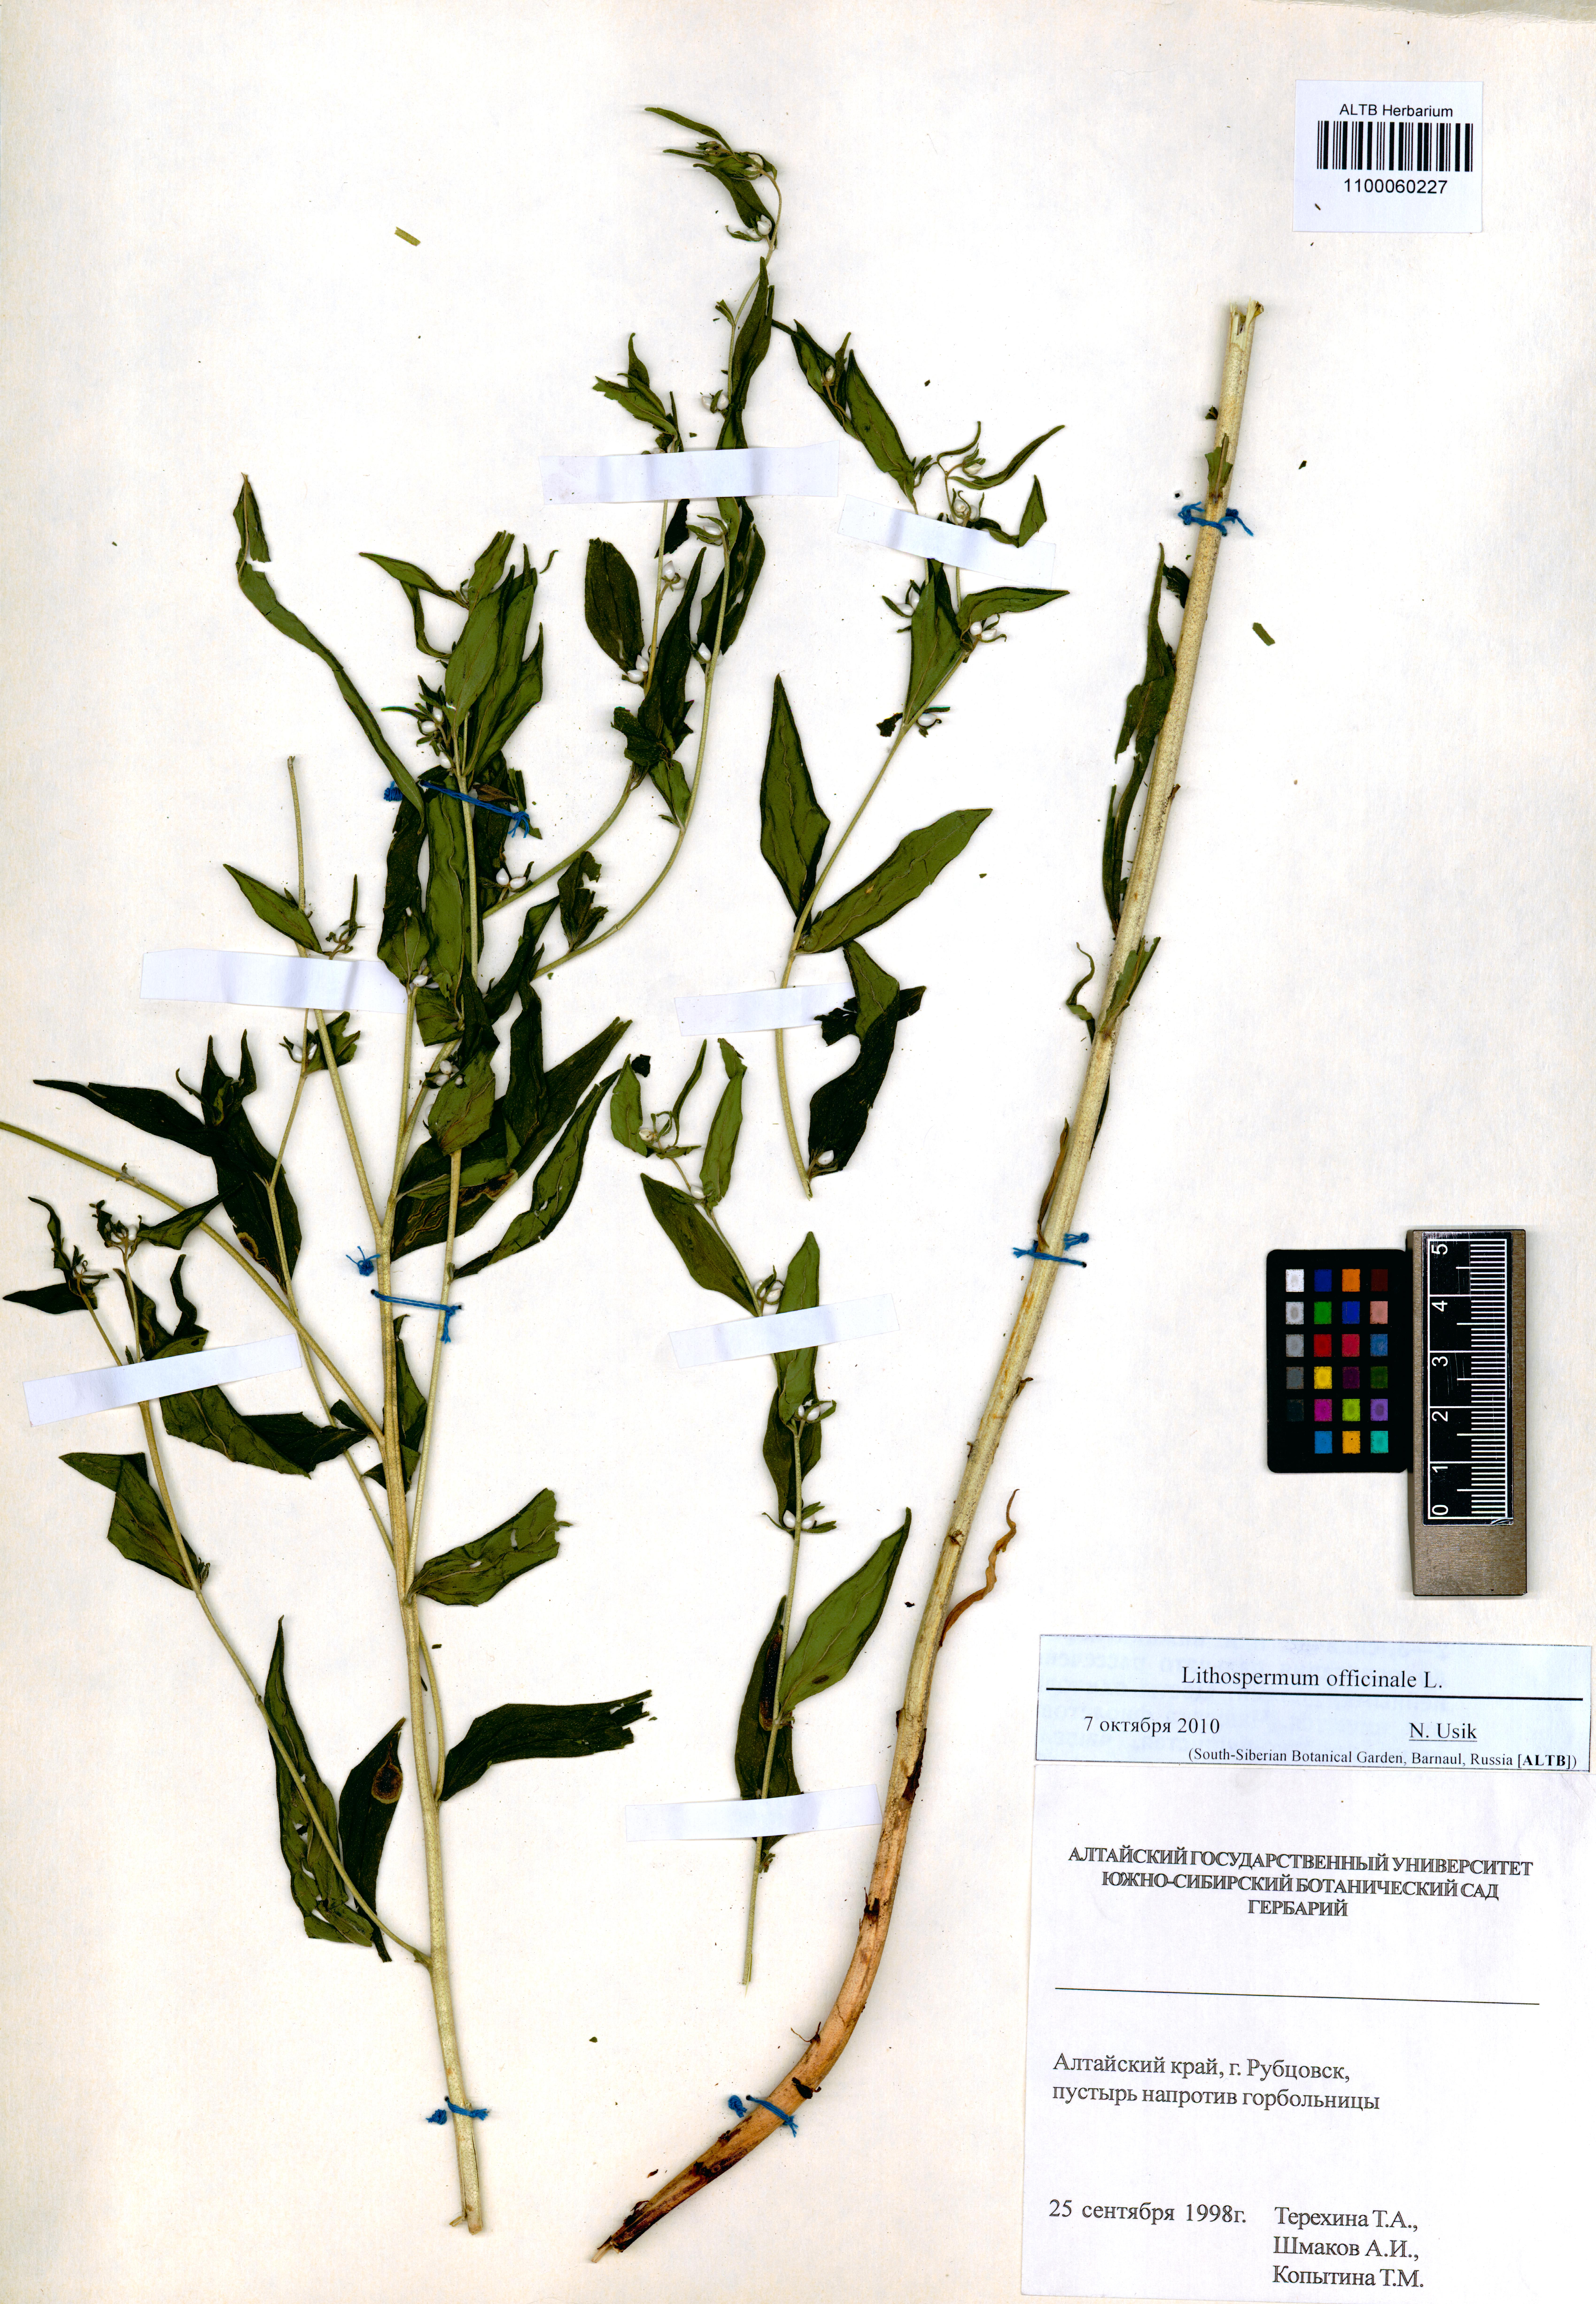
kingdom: Plantae
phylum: Tracheophyta
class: Magnoliopsida
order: Boraginales
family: Boraginaceae
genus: Lithospermum
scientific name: Lithospermum officinale
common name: Common gromwell
